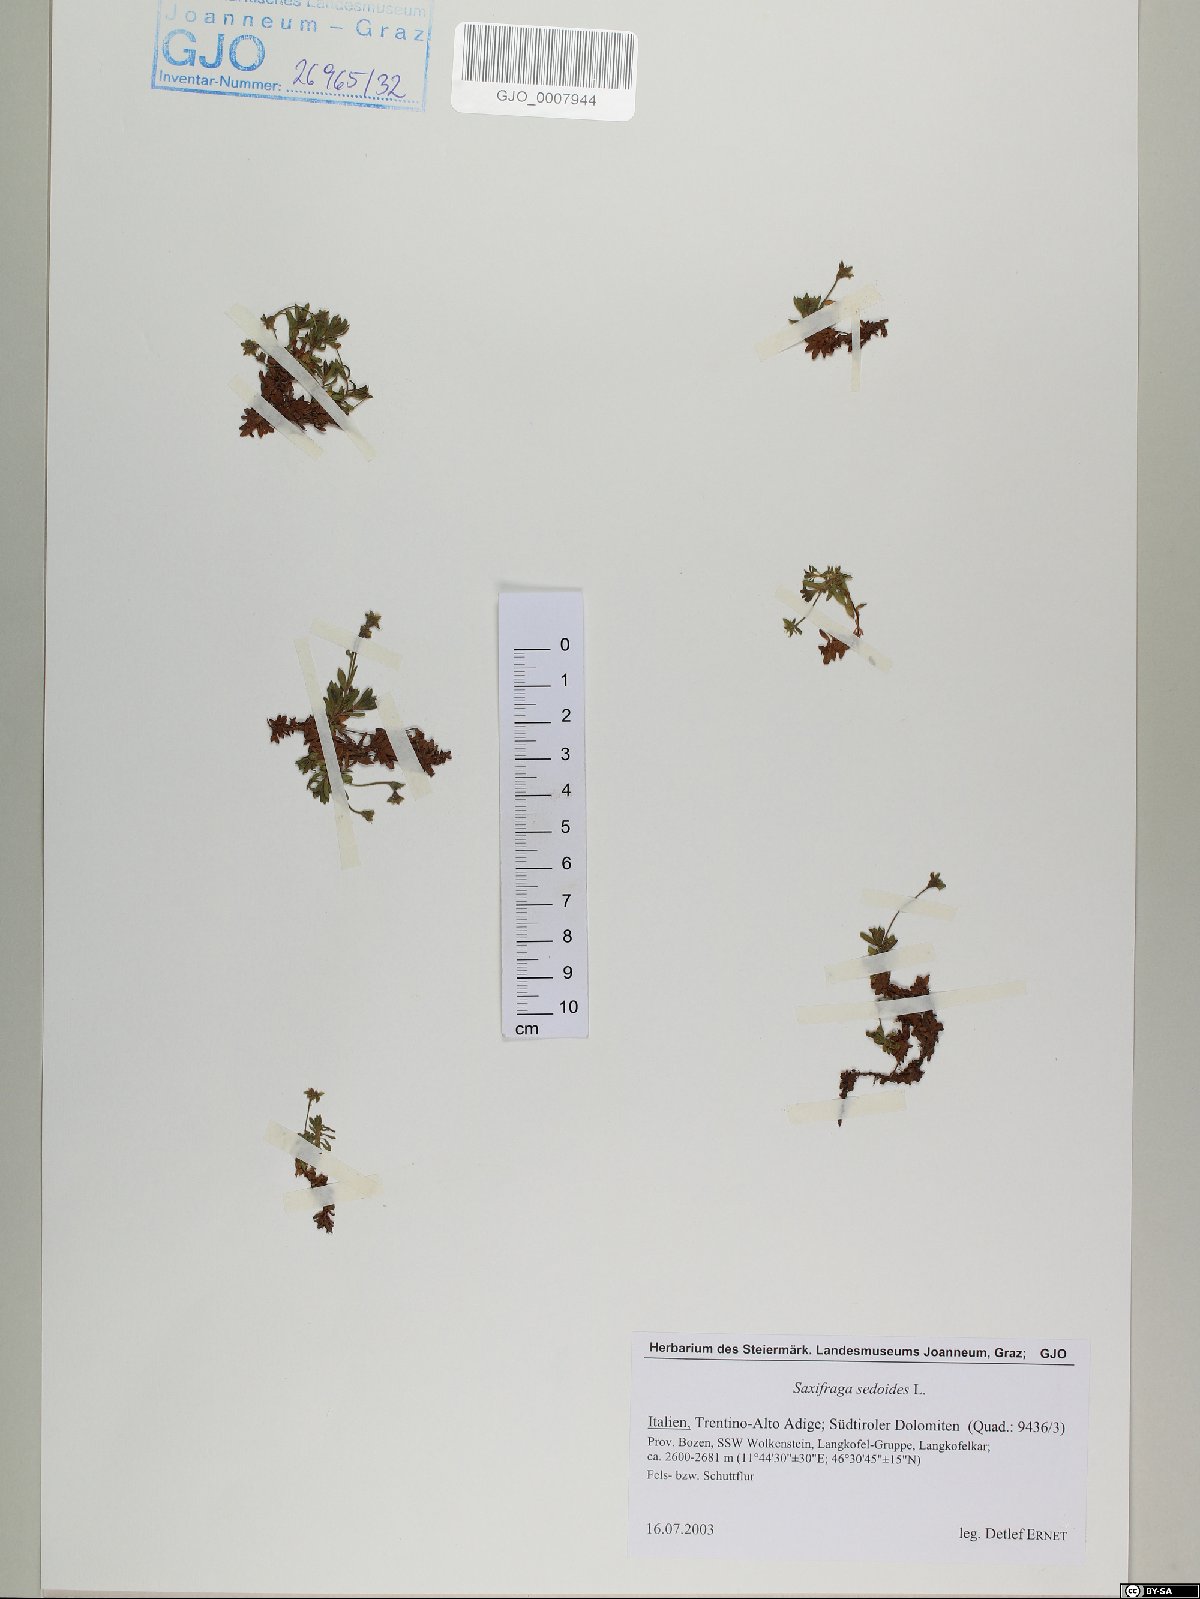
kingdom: Plantae
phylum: Tracheophyta
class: Magnoliopsida
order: Saxifragales
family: Saxifragaceae
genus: Saxifraga
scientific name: Saxifraga sedoides
